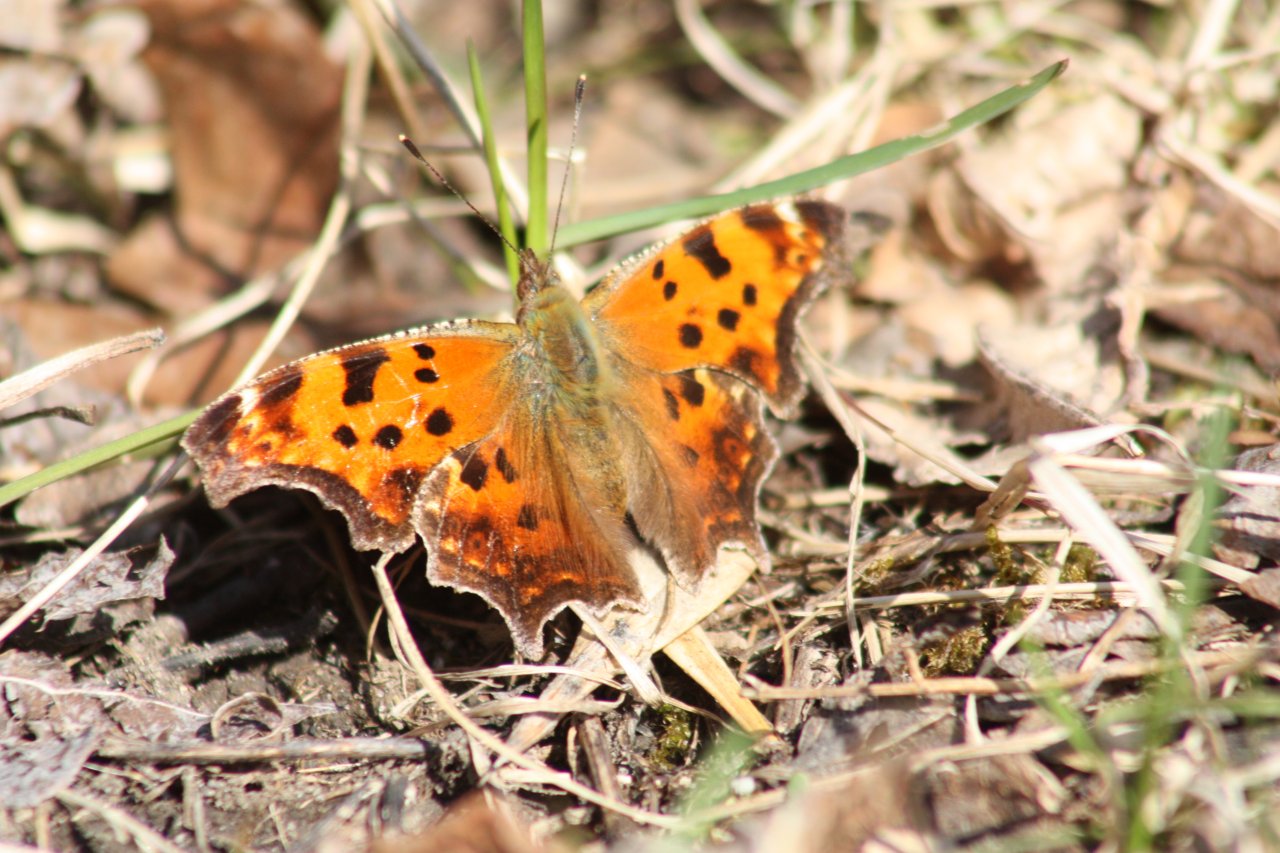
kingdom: Animalia
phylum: Arthropoda
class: Insecta
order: Lepidoptera
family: Nymphalidae
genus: Polygonia
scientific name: Polygonia comma
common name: Eastern Comma
